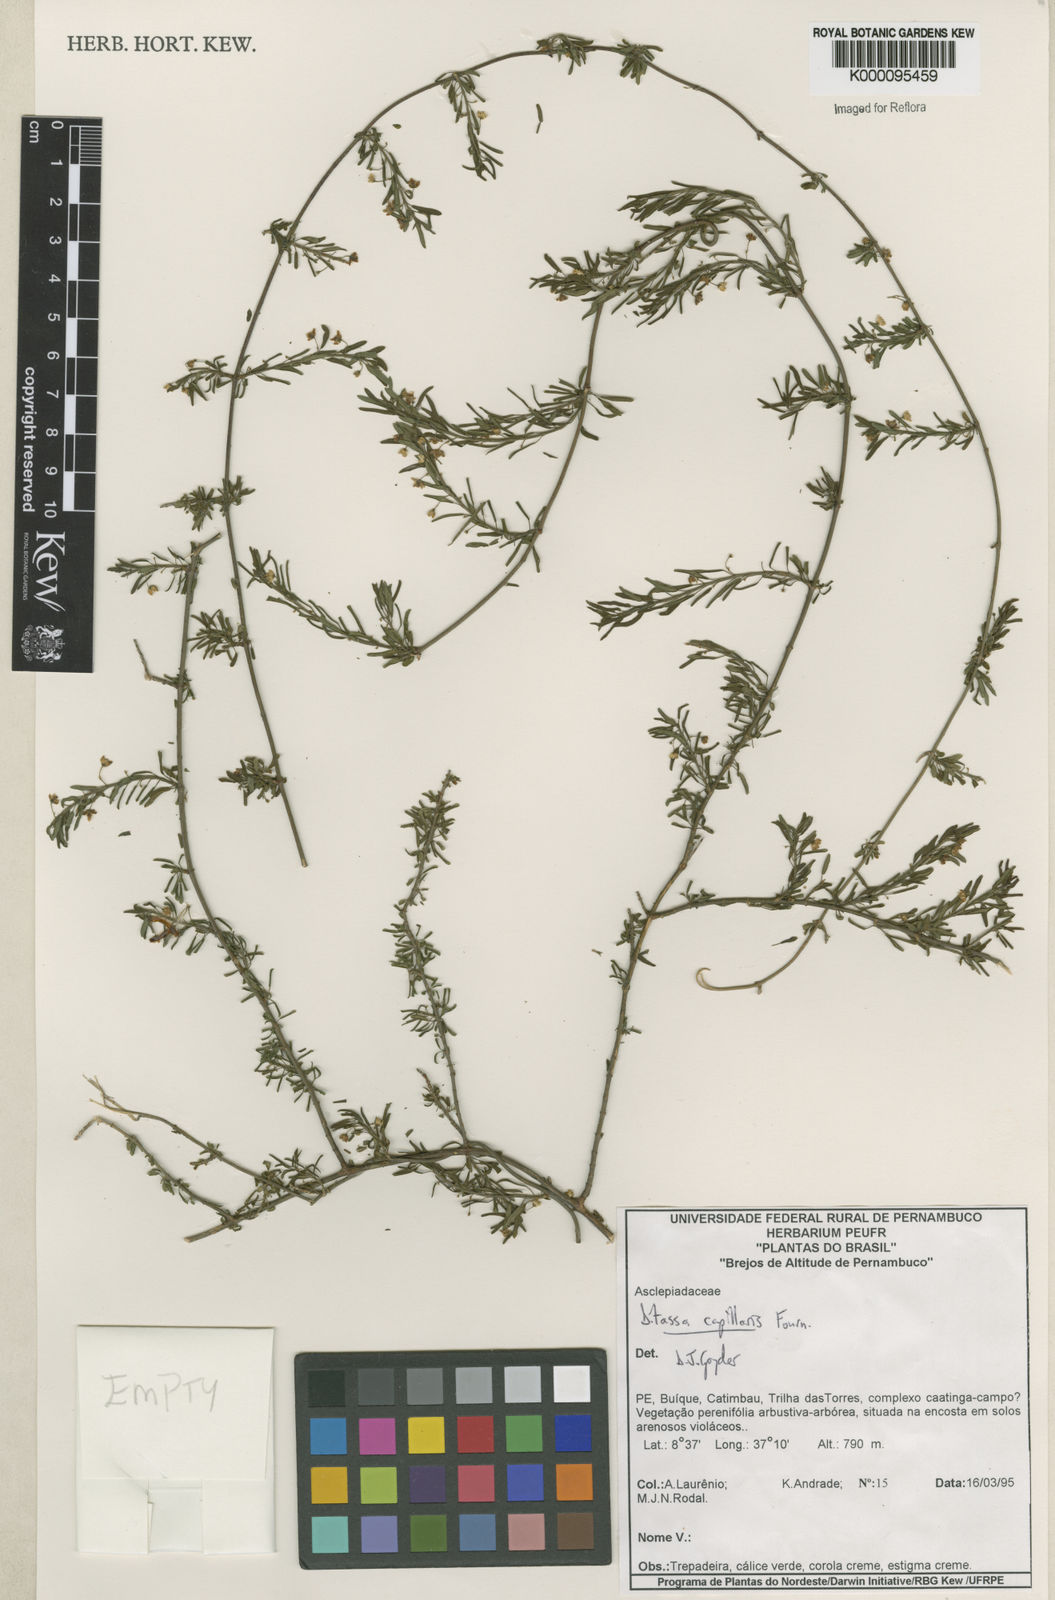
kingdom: Plantae
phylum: Tracheophyta
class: Magnoliopsida
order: Gentianales
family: Apocynaceae
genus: Ditassa
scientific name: Ditassa capillaris
